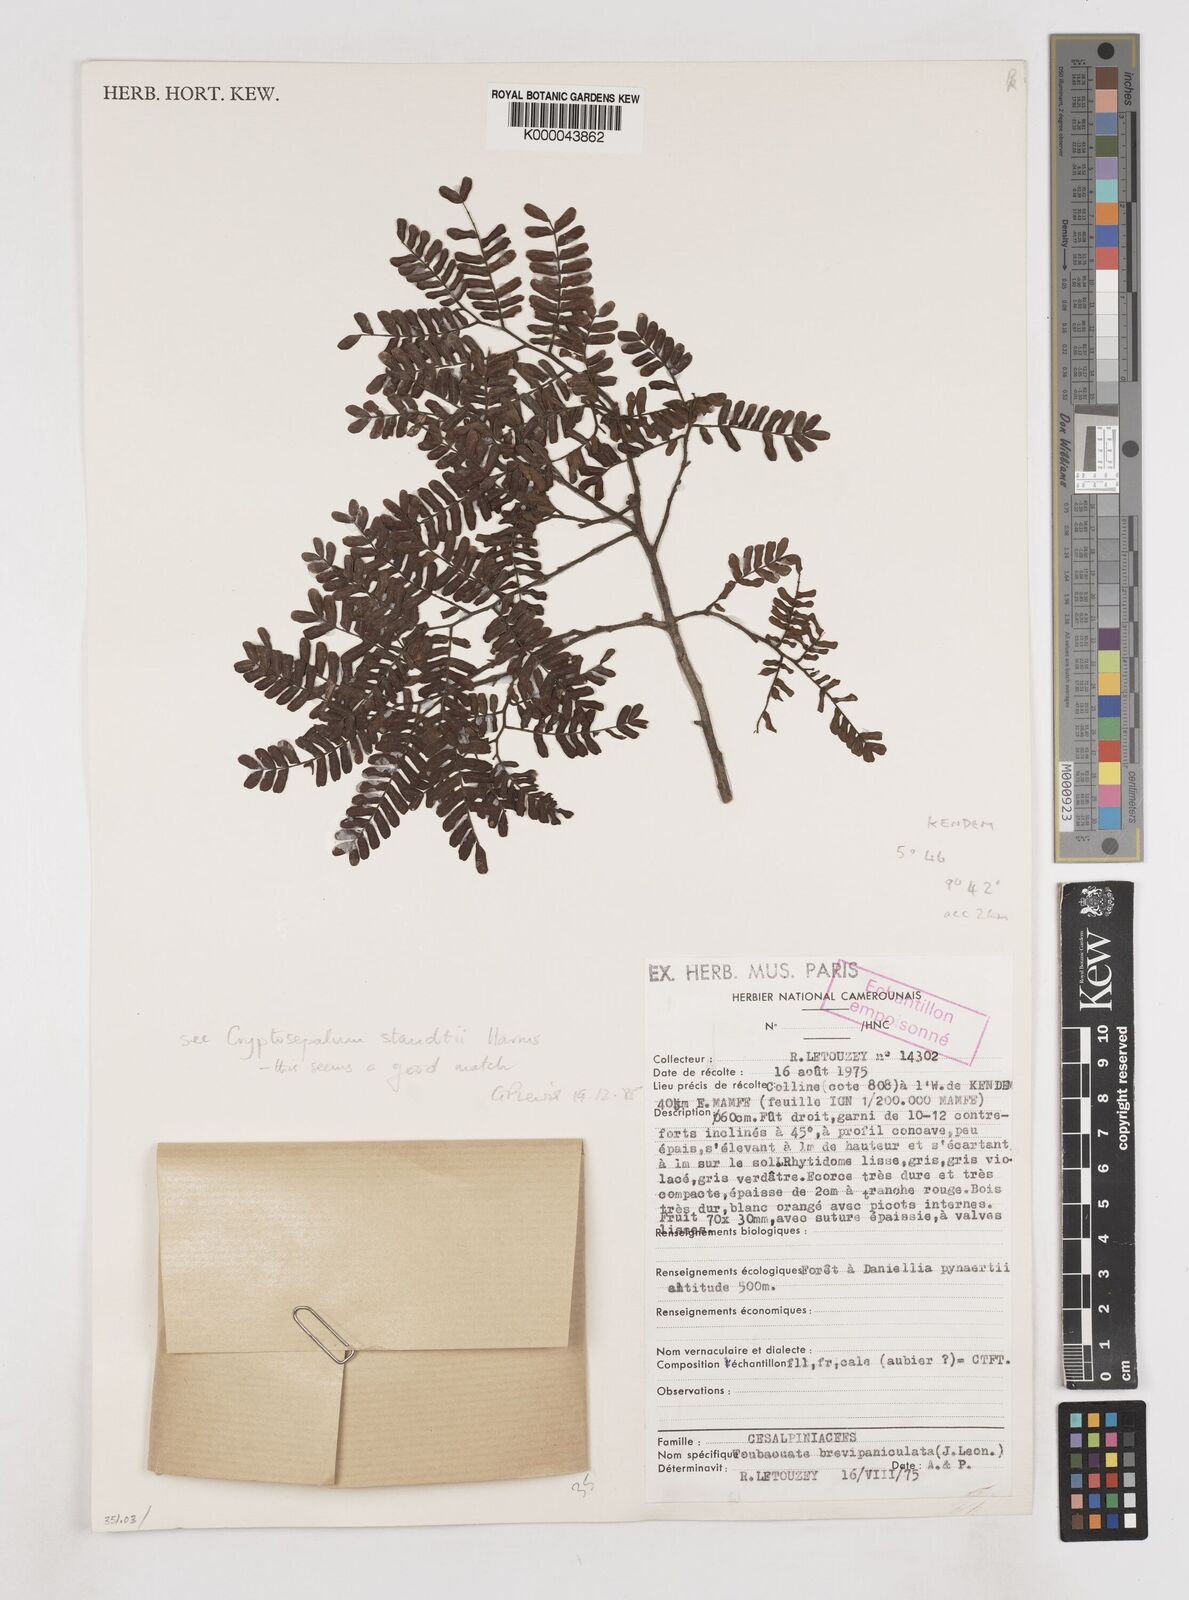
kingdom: Plantae
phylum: Tracheophyta
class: Magnoliopsida
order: Fabales
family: Fabaceae
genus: Didelotia
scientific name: Didelotia
